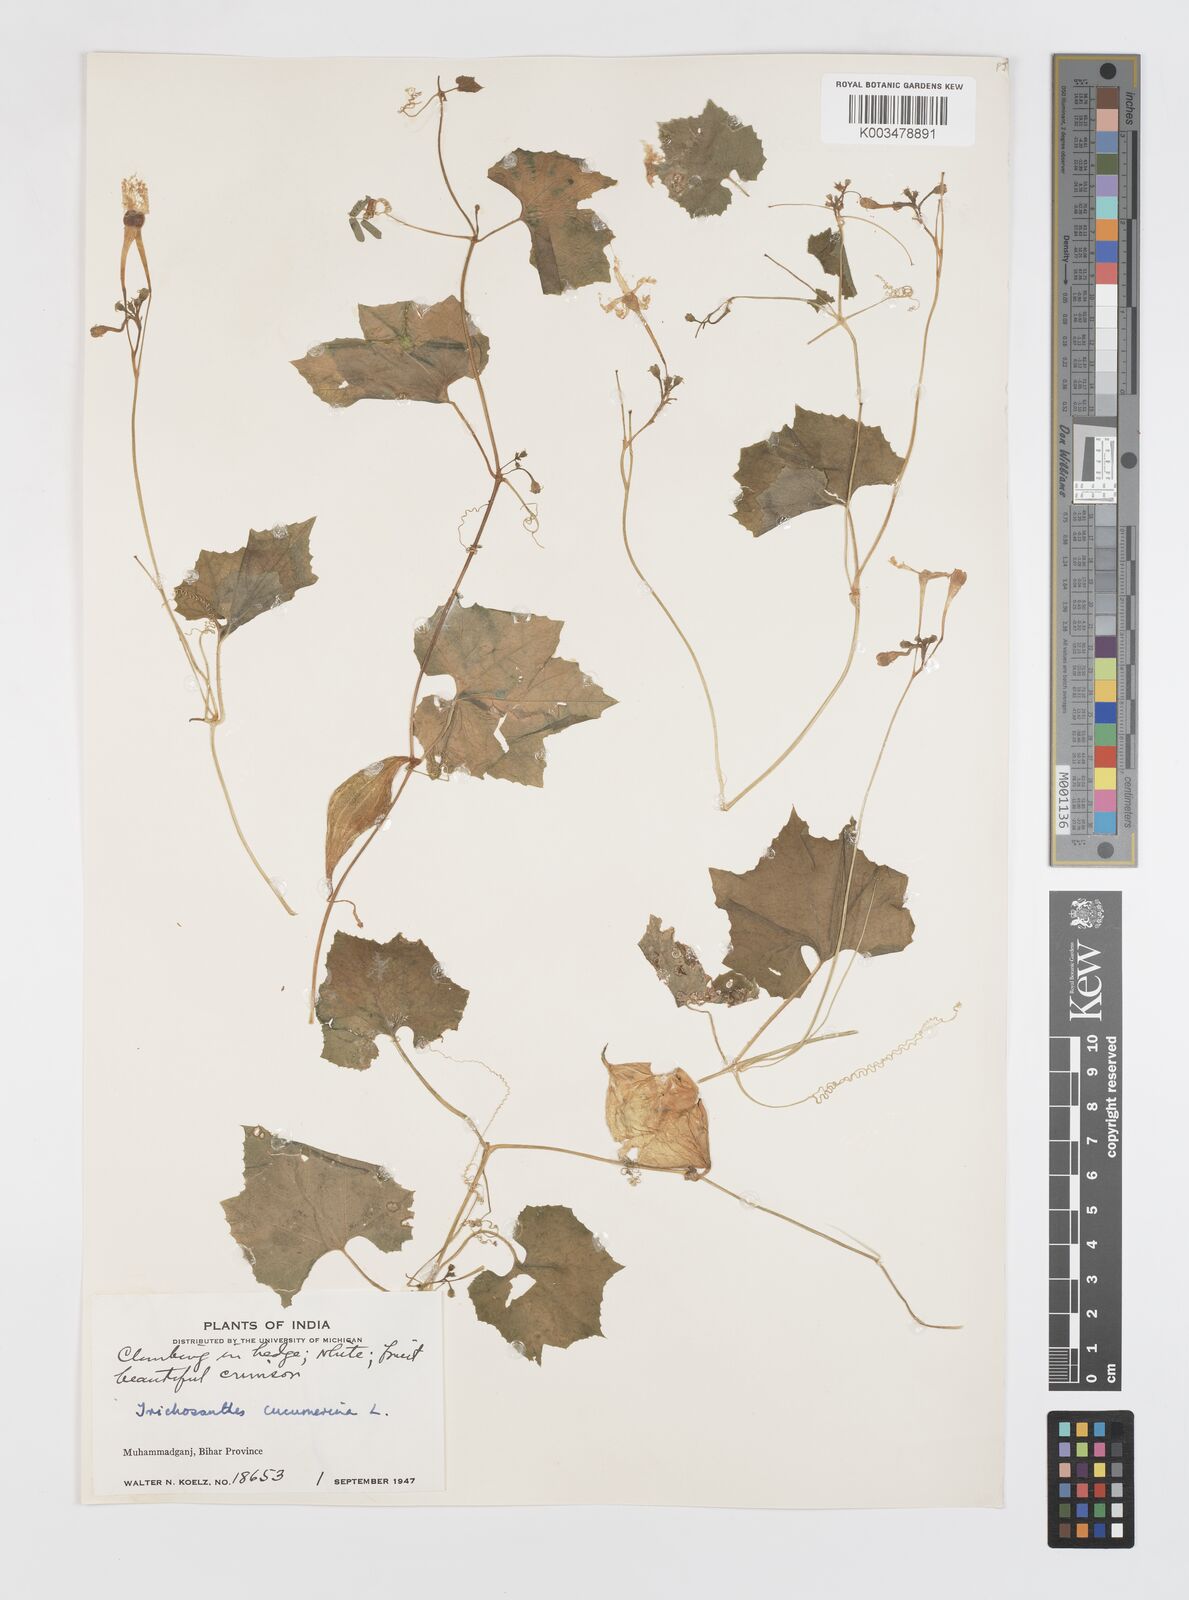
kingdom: Plantae
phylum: Tracheophyta
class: Magnoliopsida
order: Cucurbitales
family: Cucurbitaceae
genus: Trichosanthes
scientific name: Trichosanthes cucumerina
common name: Snakegourd
